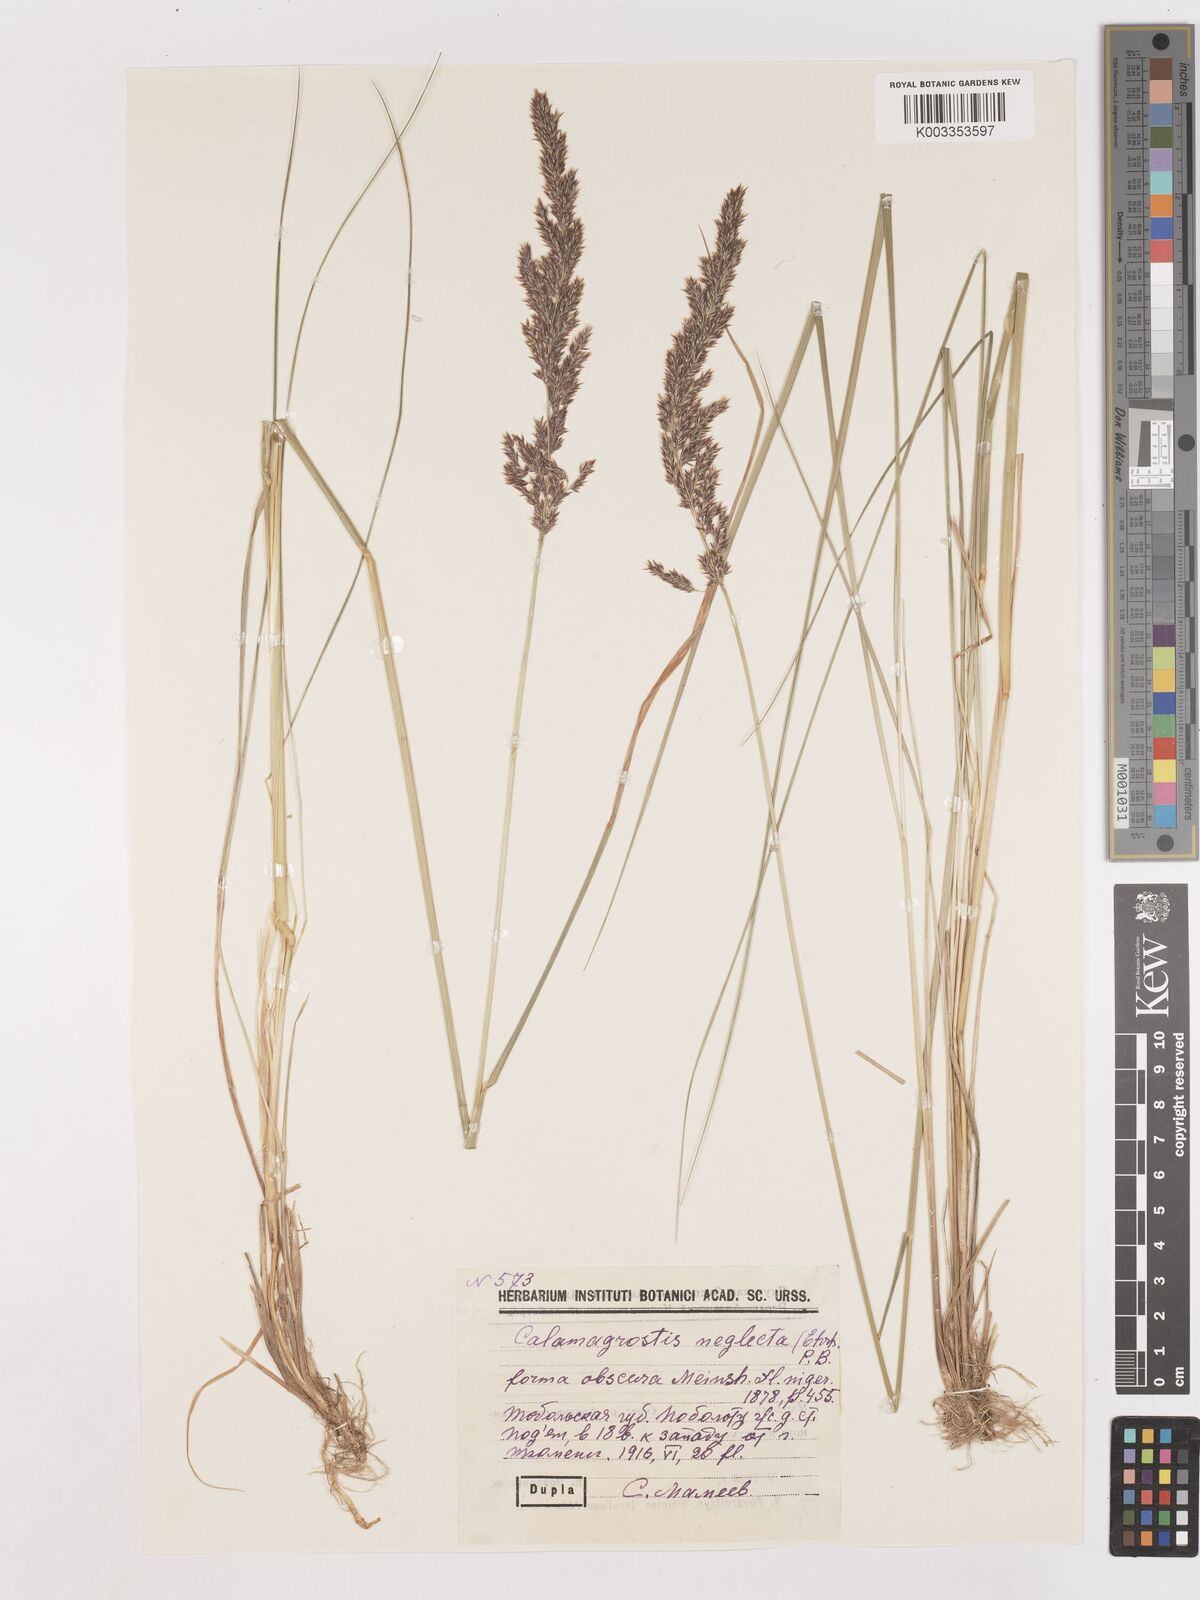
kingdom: Plantae
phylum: Tracheophyta
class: Liliopsida
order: Poales
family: Poaceae
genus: Cinnagrostis
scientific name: Cinnagrostis recta
